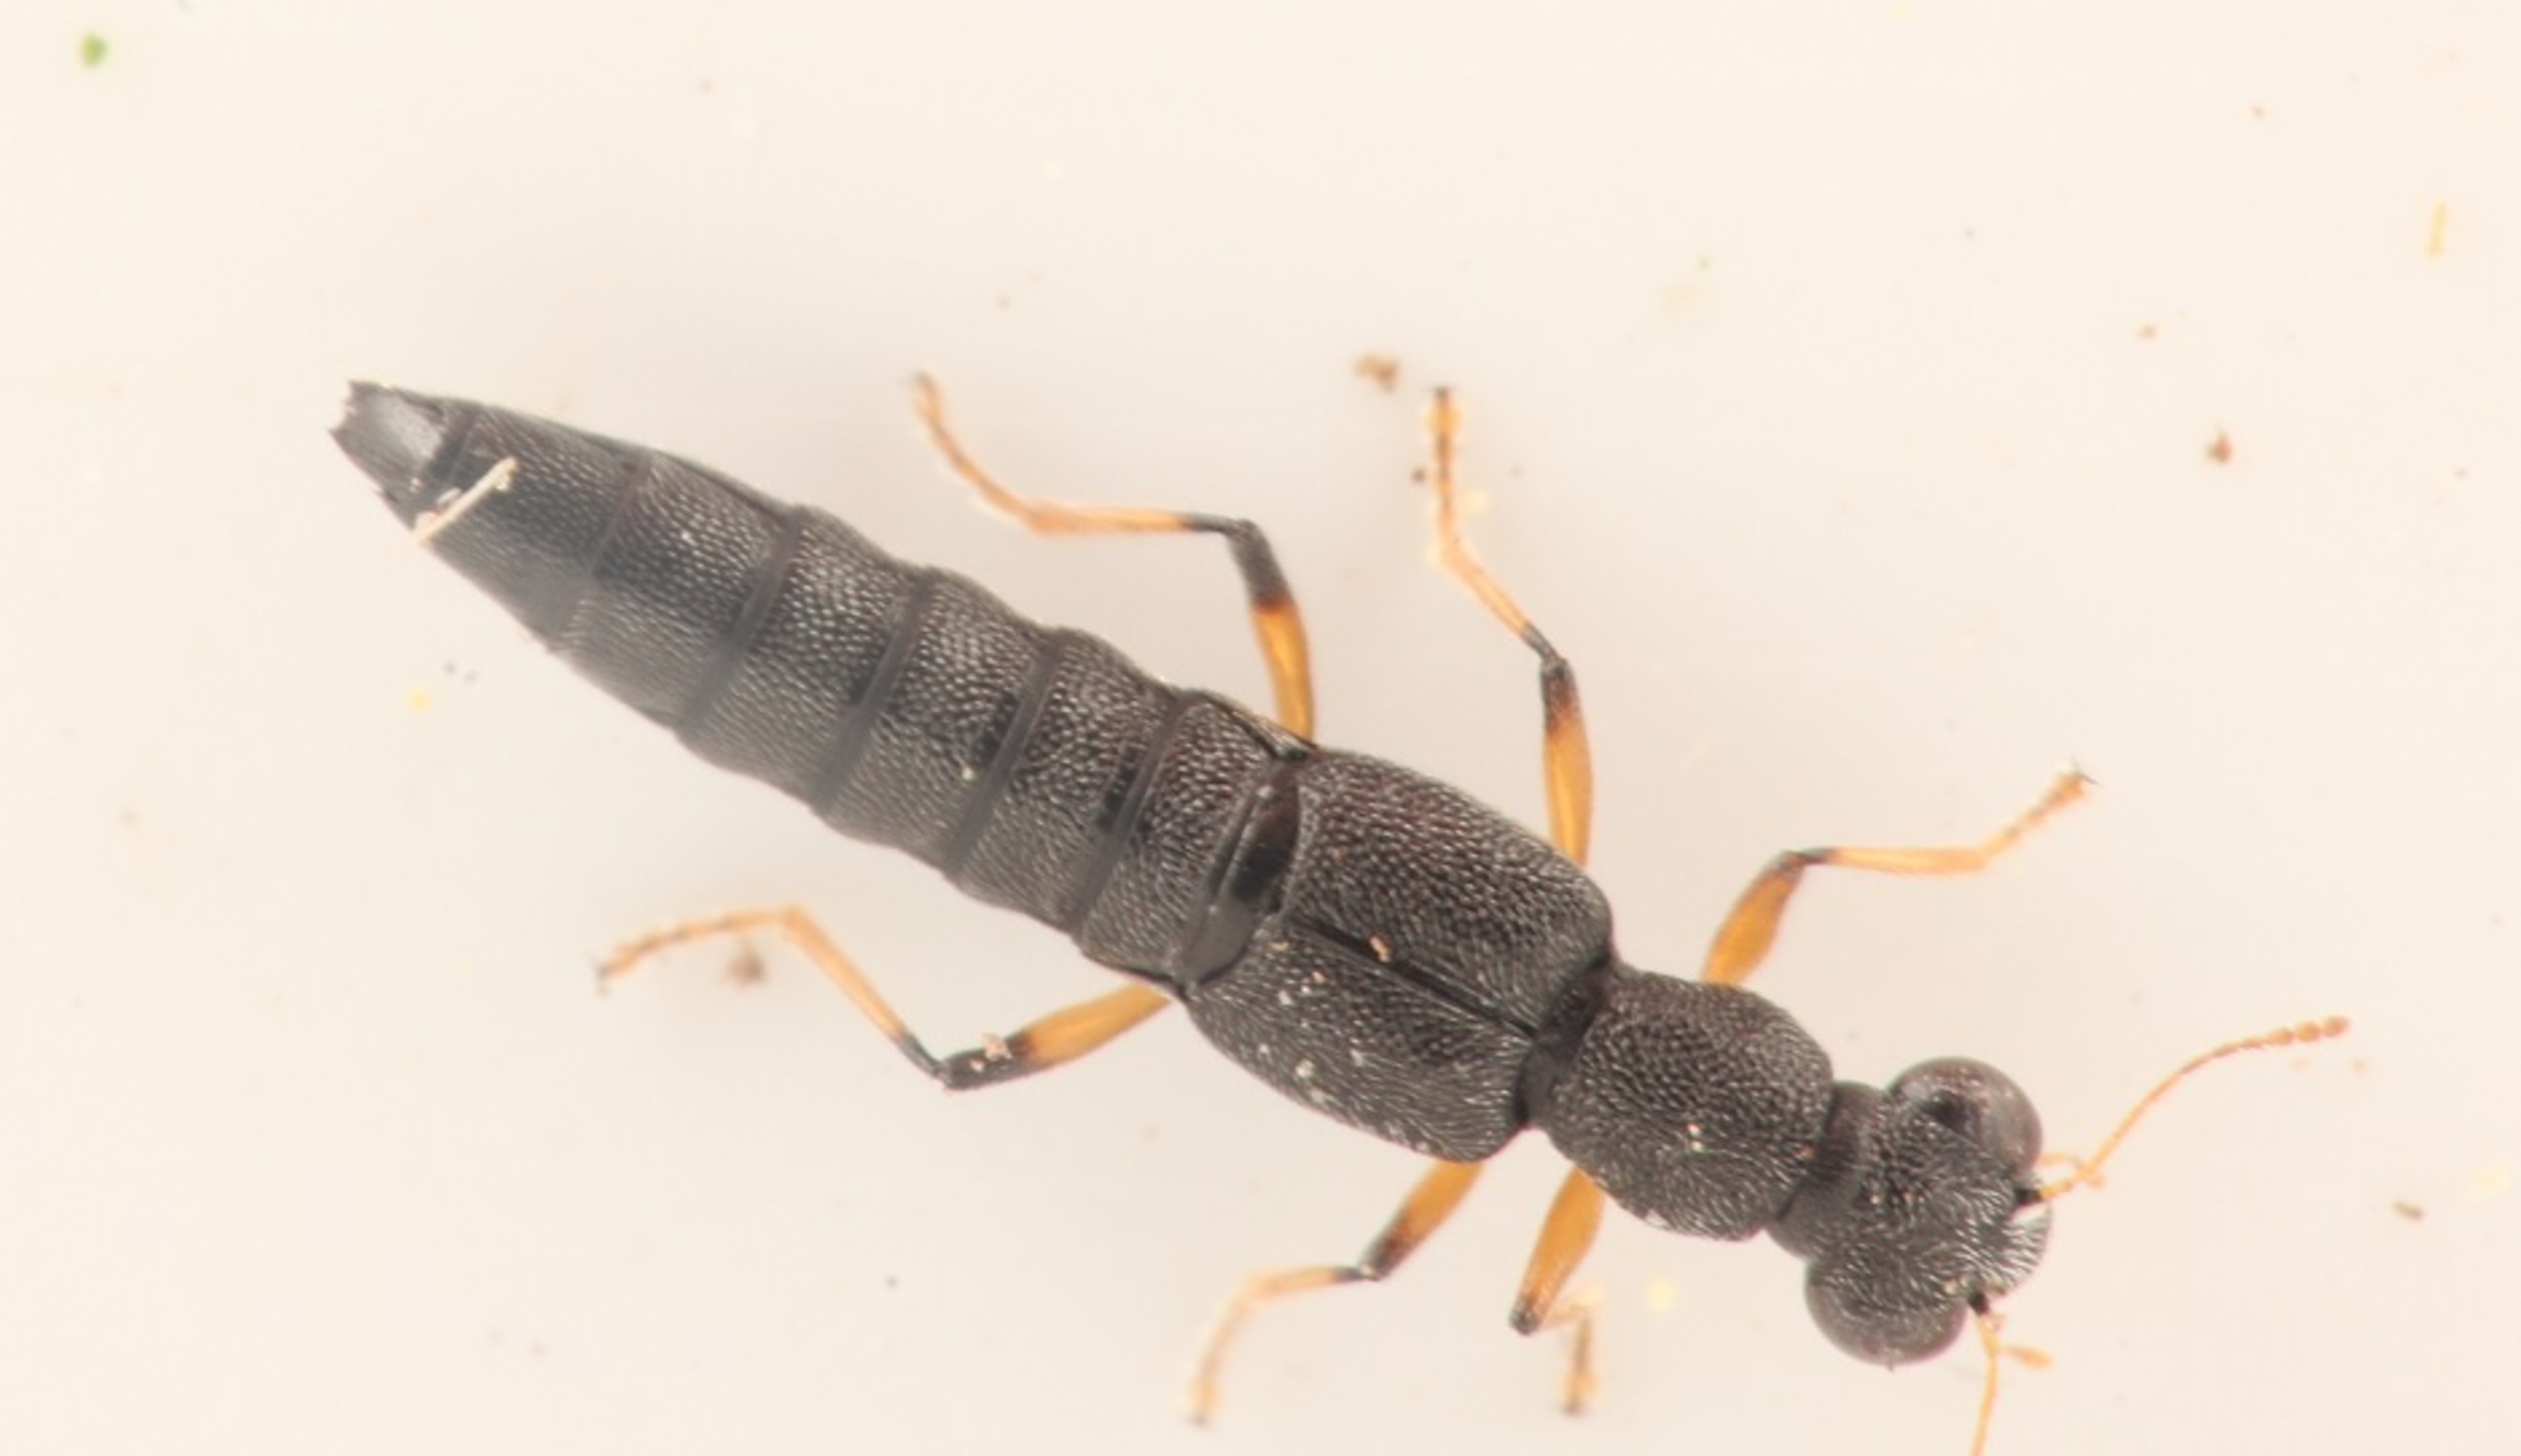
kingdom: Animalia
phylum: Arthropoda
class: Insecta
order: Coleoptera
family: Staphylinidae
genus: Stenus
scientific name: Stenus similis
